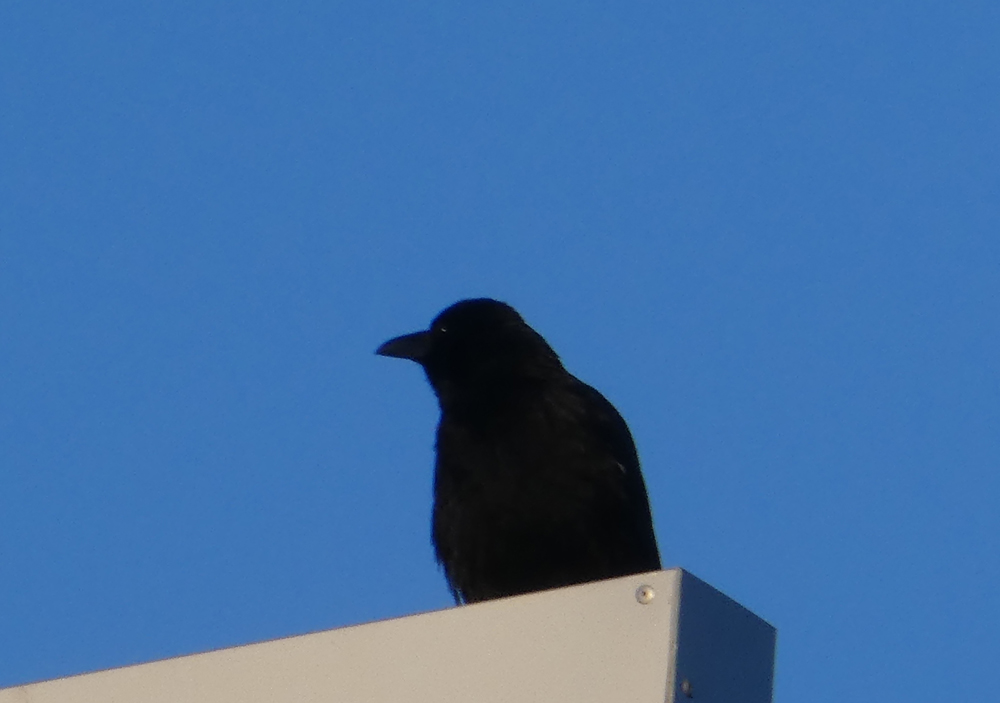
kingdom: Animalia
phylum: Chordata
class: Aves
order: Passeriformes
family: Corvidae
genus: Corvus
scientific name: Corvus corone
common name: Carrion crow
